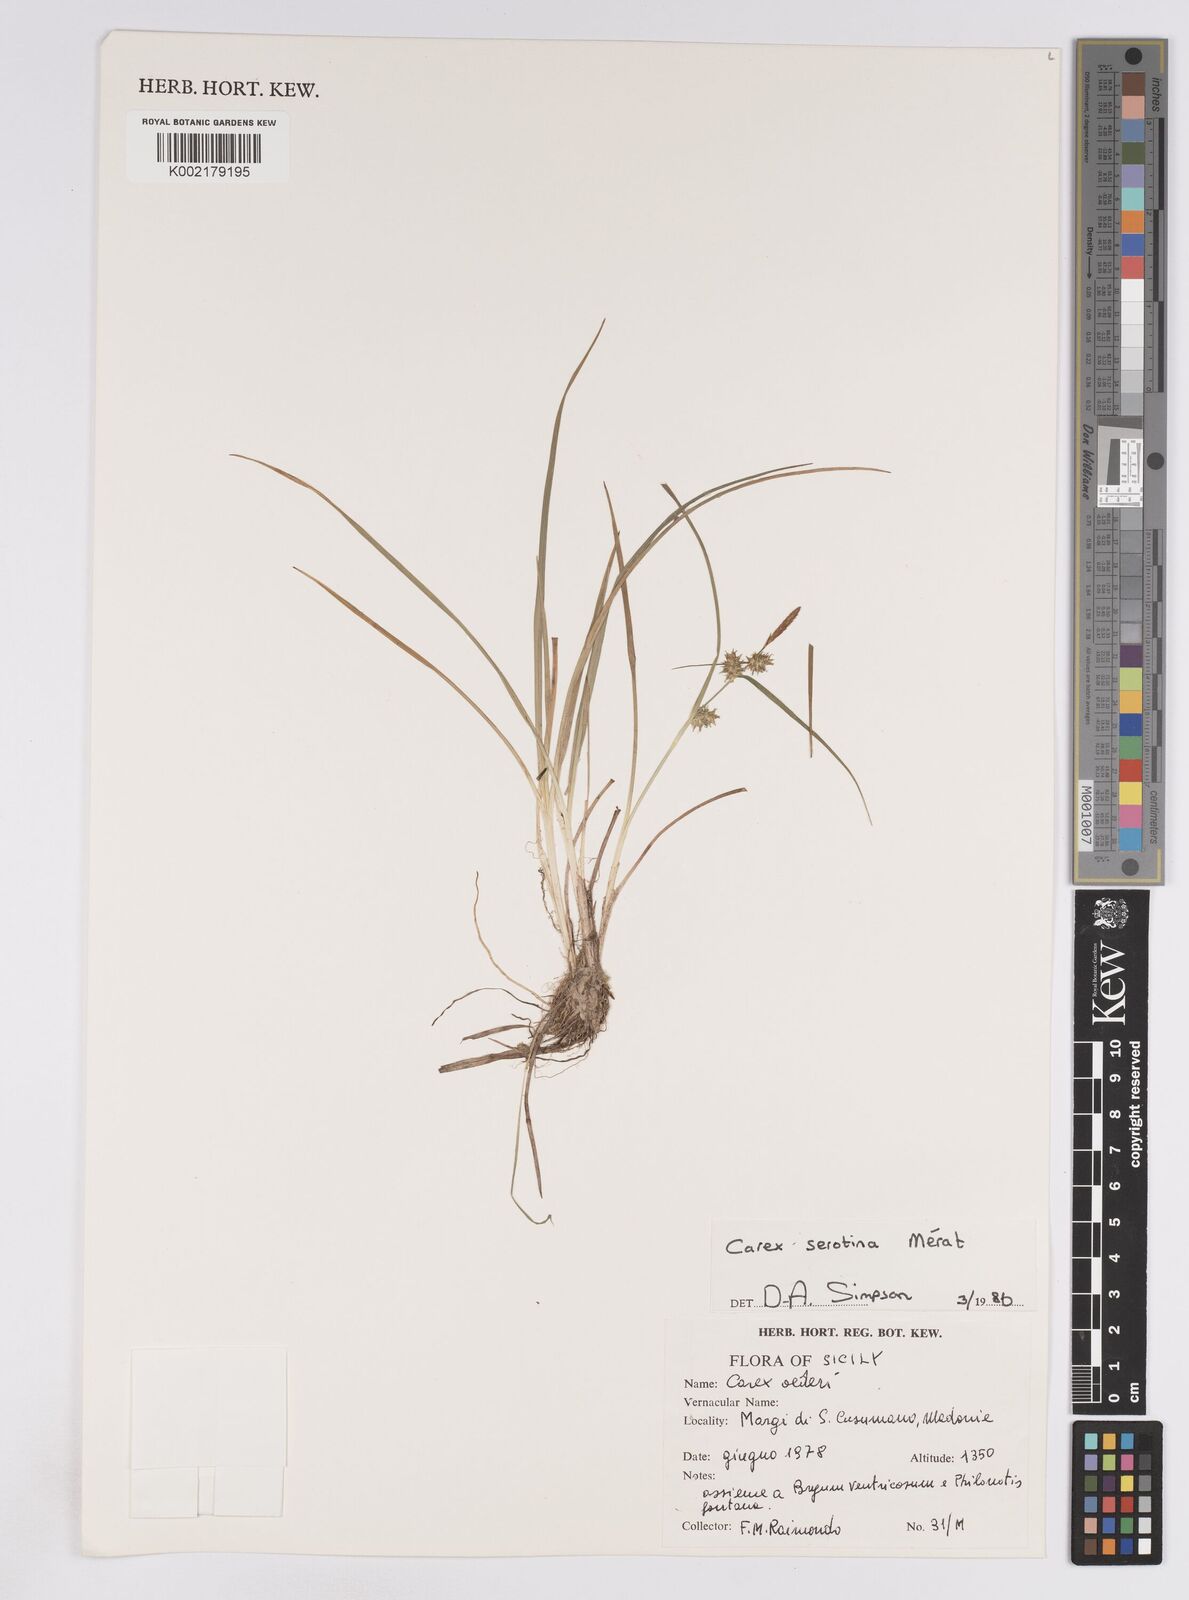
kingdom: Plantae
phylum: Tracheophyta
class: Liliopsida
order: Poales
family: Cyperaceae
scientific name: Cyperaceae
